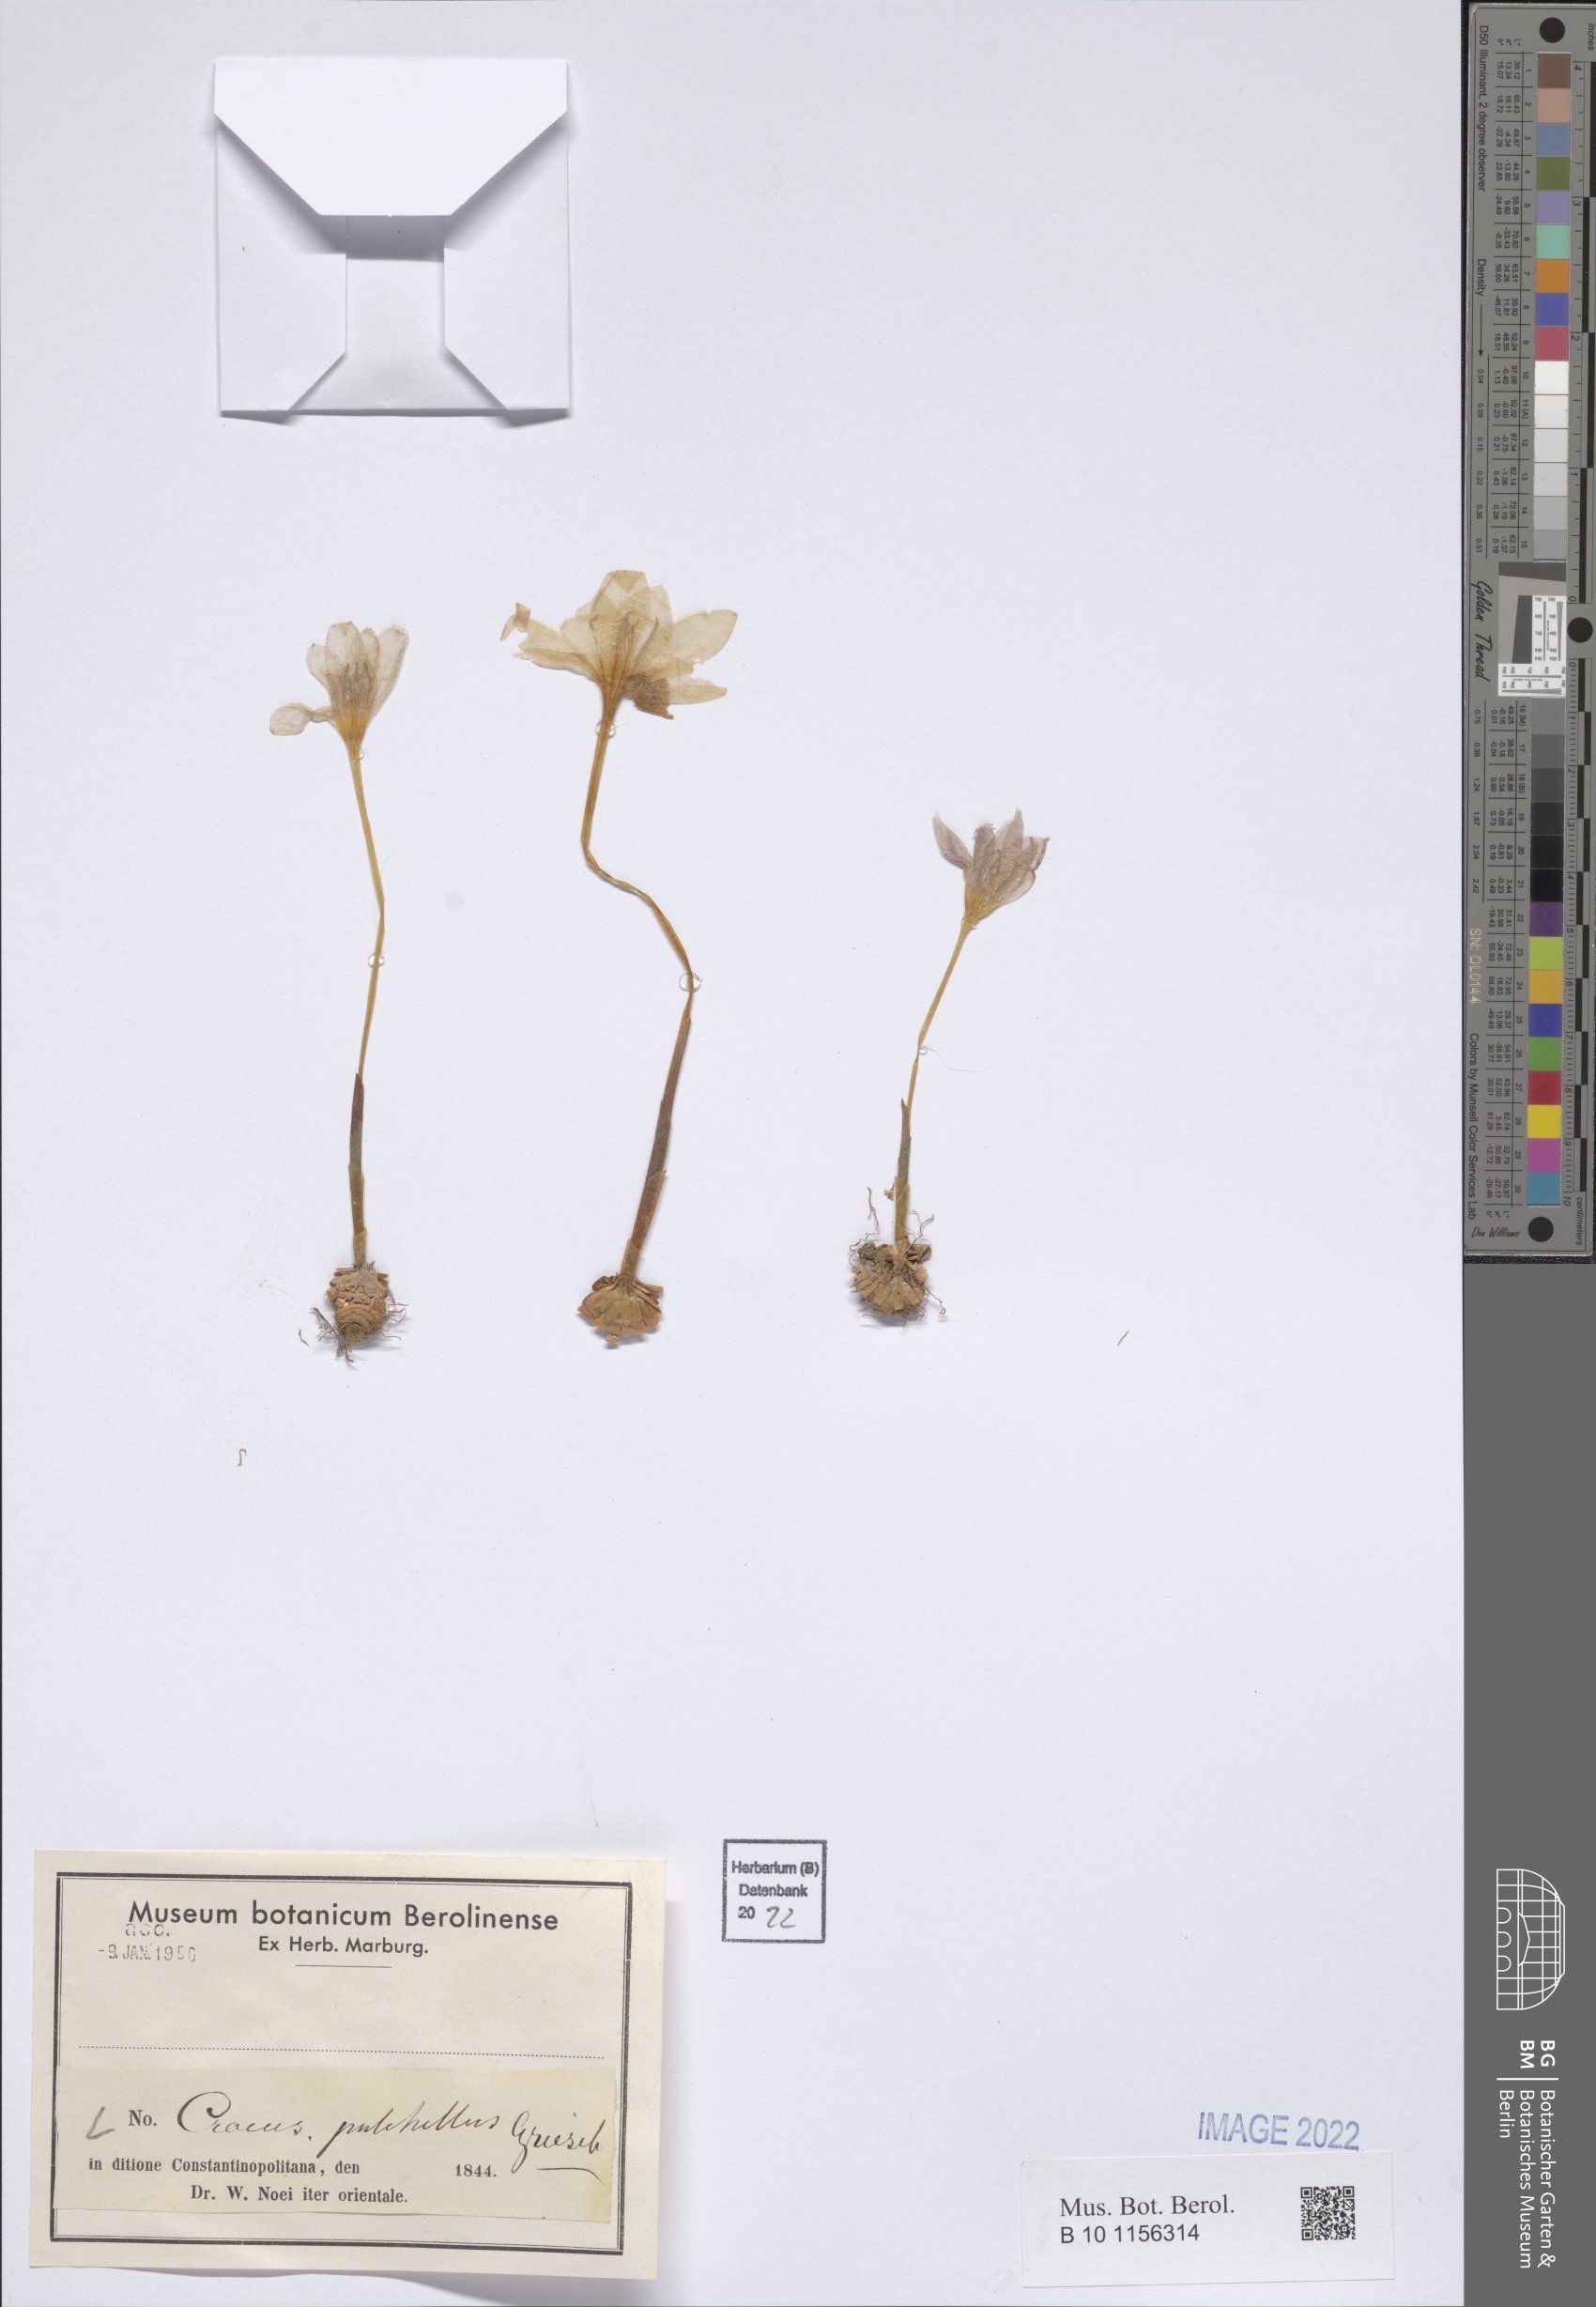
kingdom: Plantae
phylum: Tracheophyta
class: Liliopsida
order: Asparagales
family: Iridaceae
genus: Crocus
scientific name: Crocus pulchellus
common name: Hairy crocus
